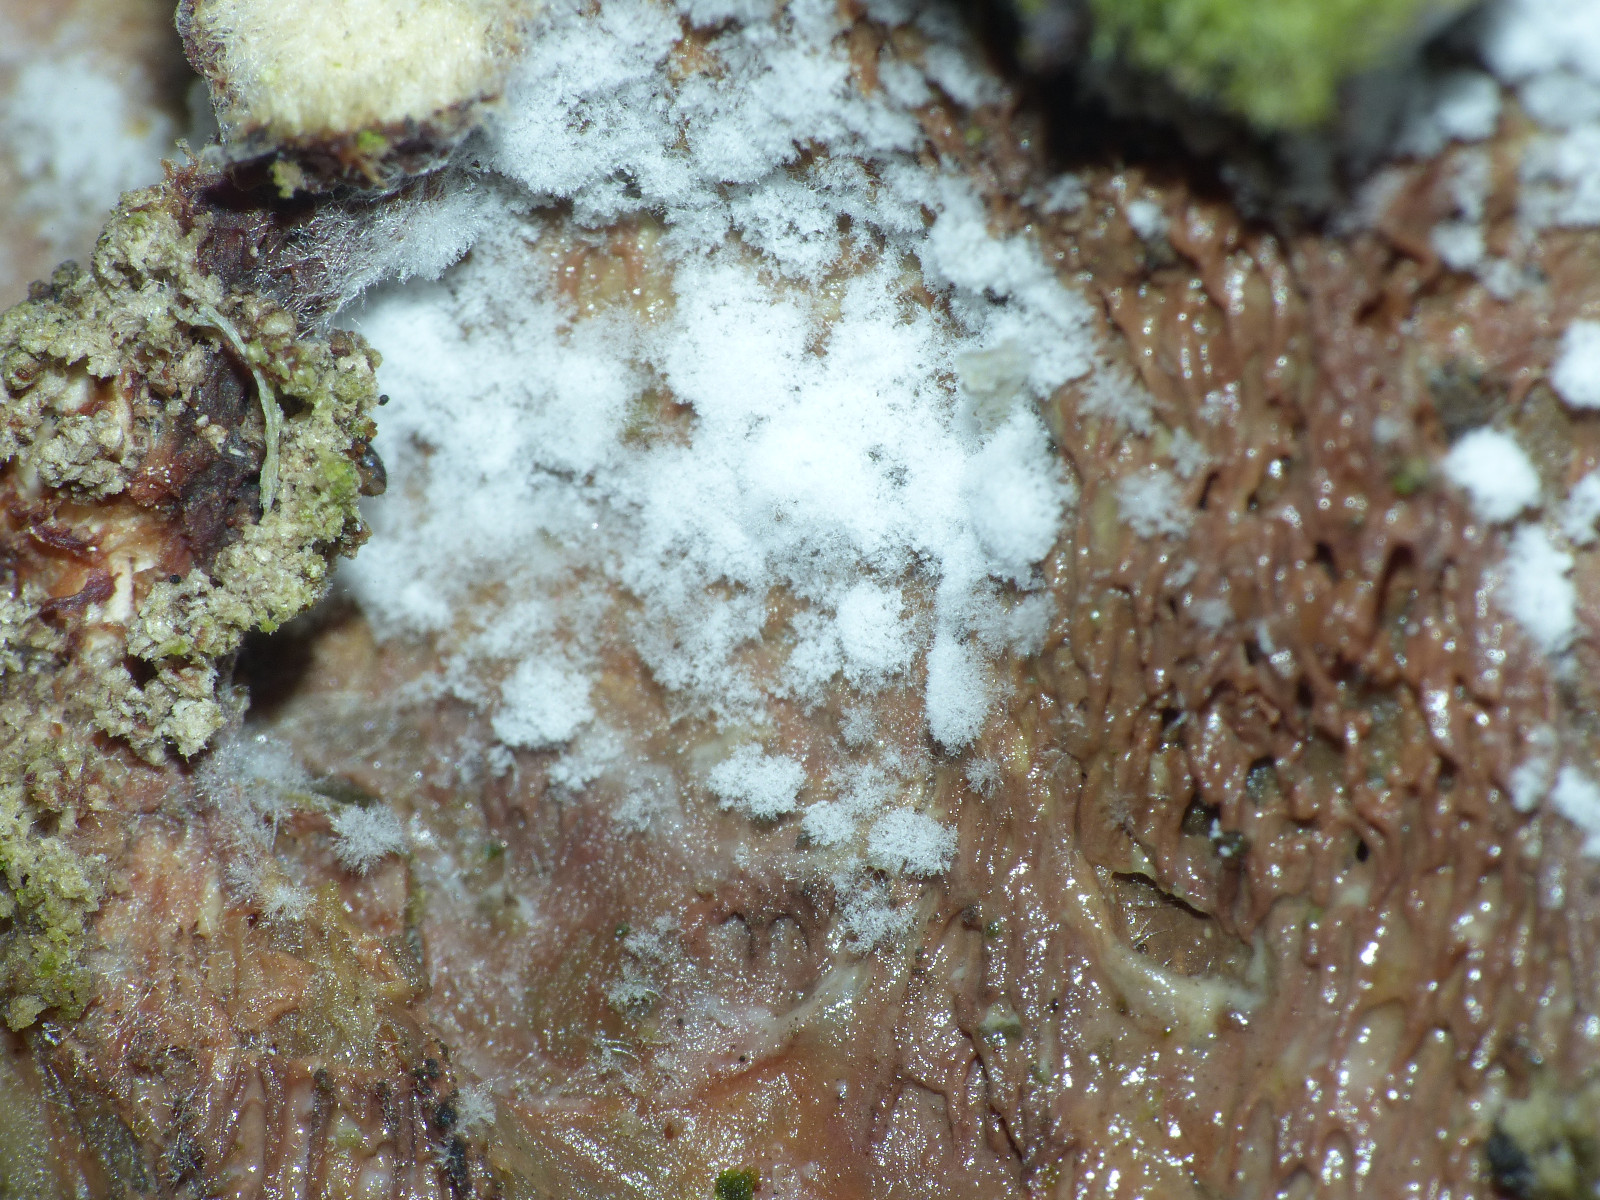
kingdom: Fungi
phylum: Ascomycota
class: Sordariomycetes
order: Hypocreales
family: Hypocreaceae
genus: Cladobotryum
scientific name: Cladobotryum
